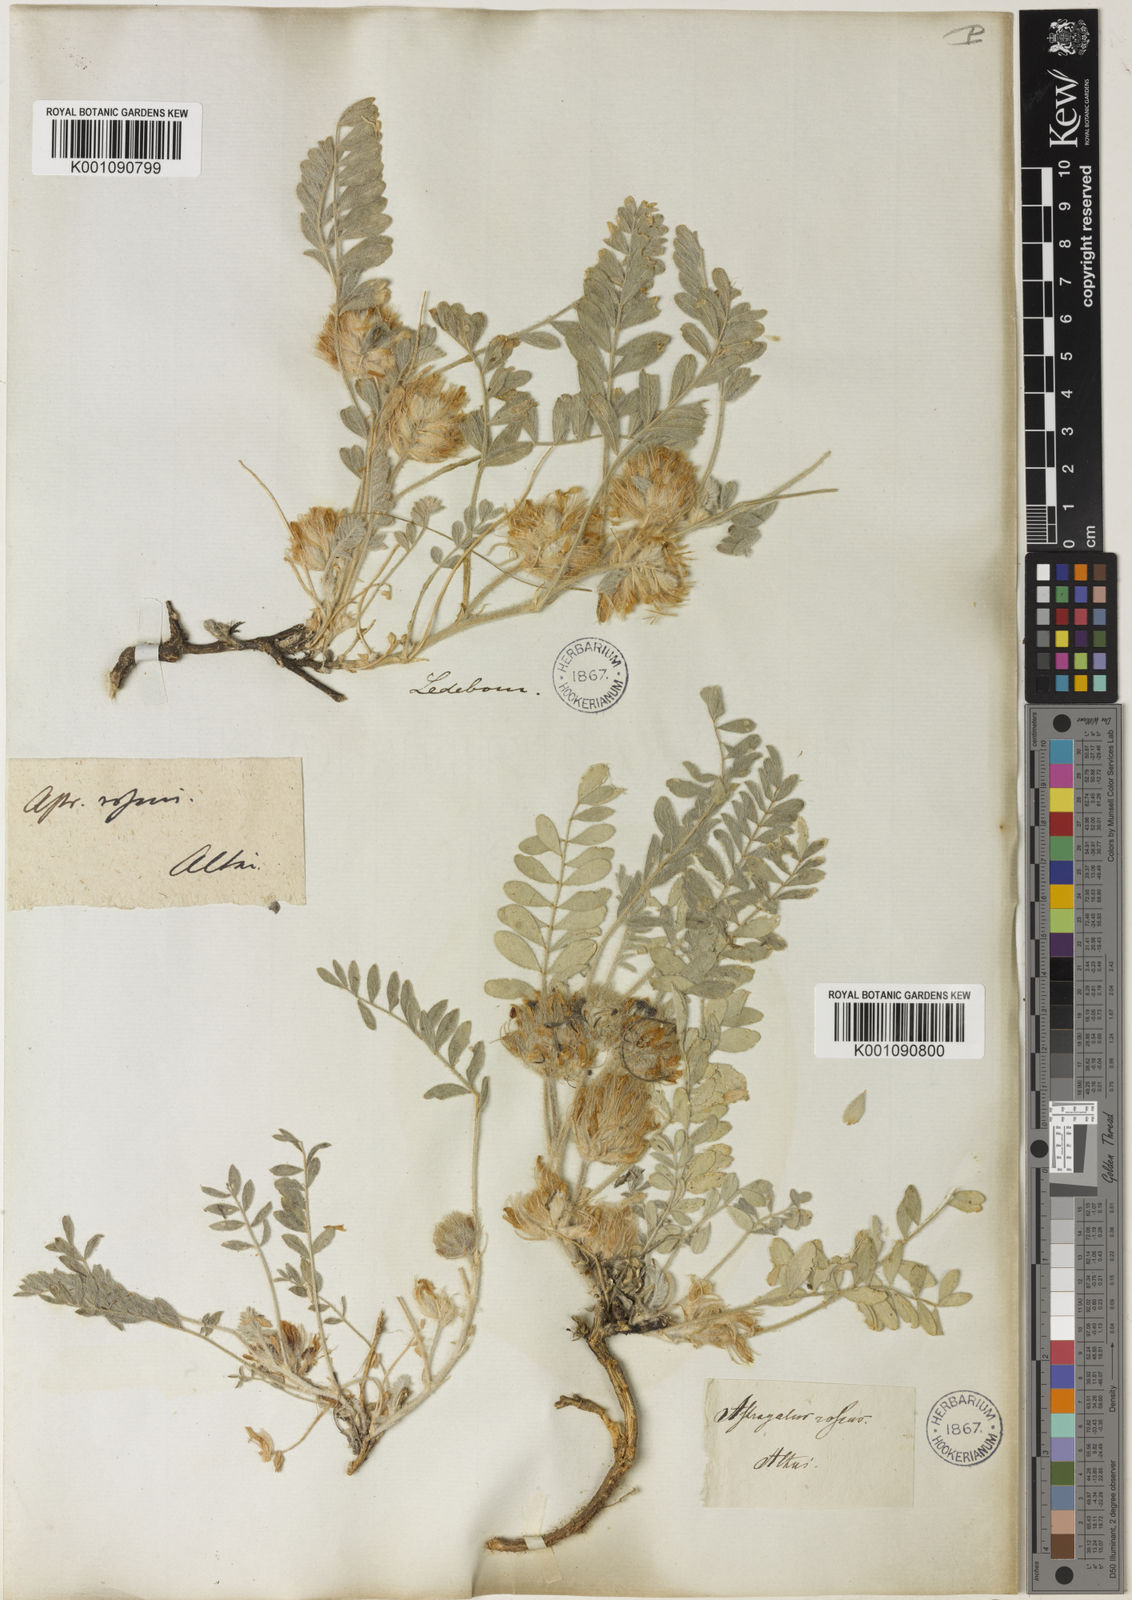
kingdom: Plantae
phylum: Tracheophyta
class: Magnoliopsida
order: Fabales
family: Fabaceae
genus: Astragalus
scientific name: Astragalus
